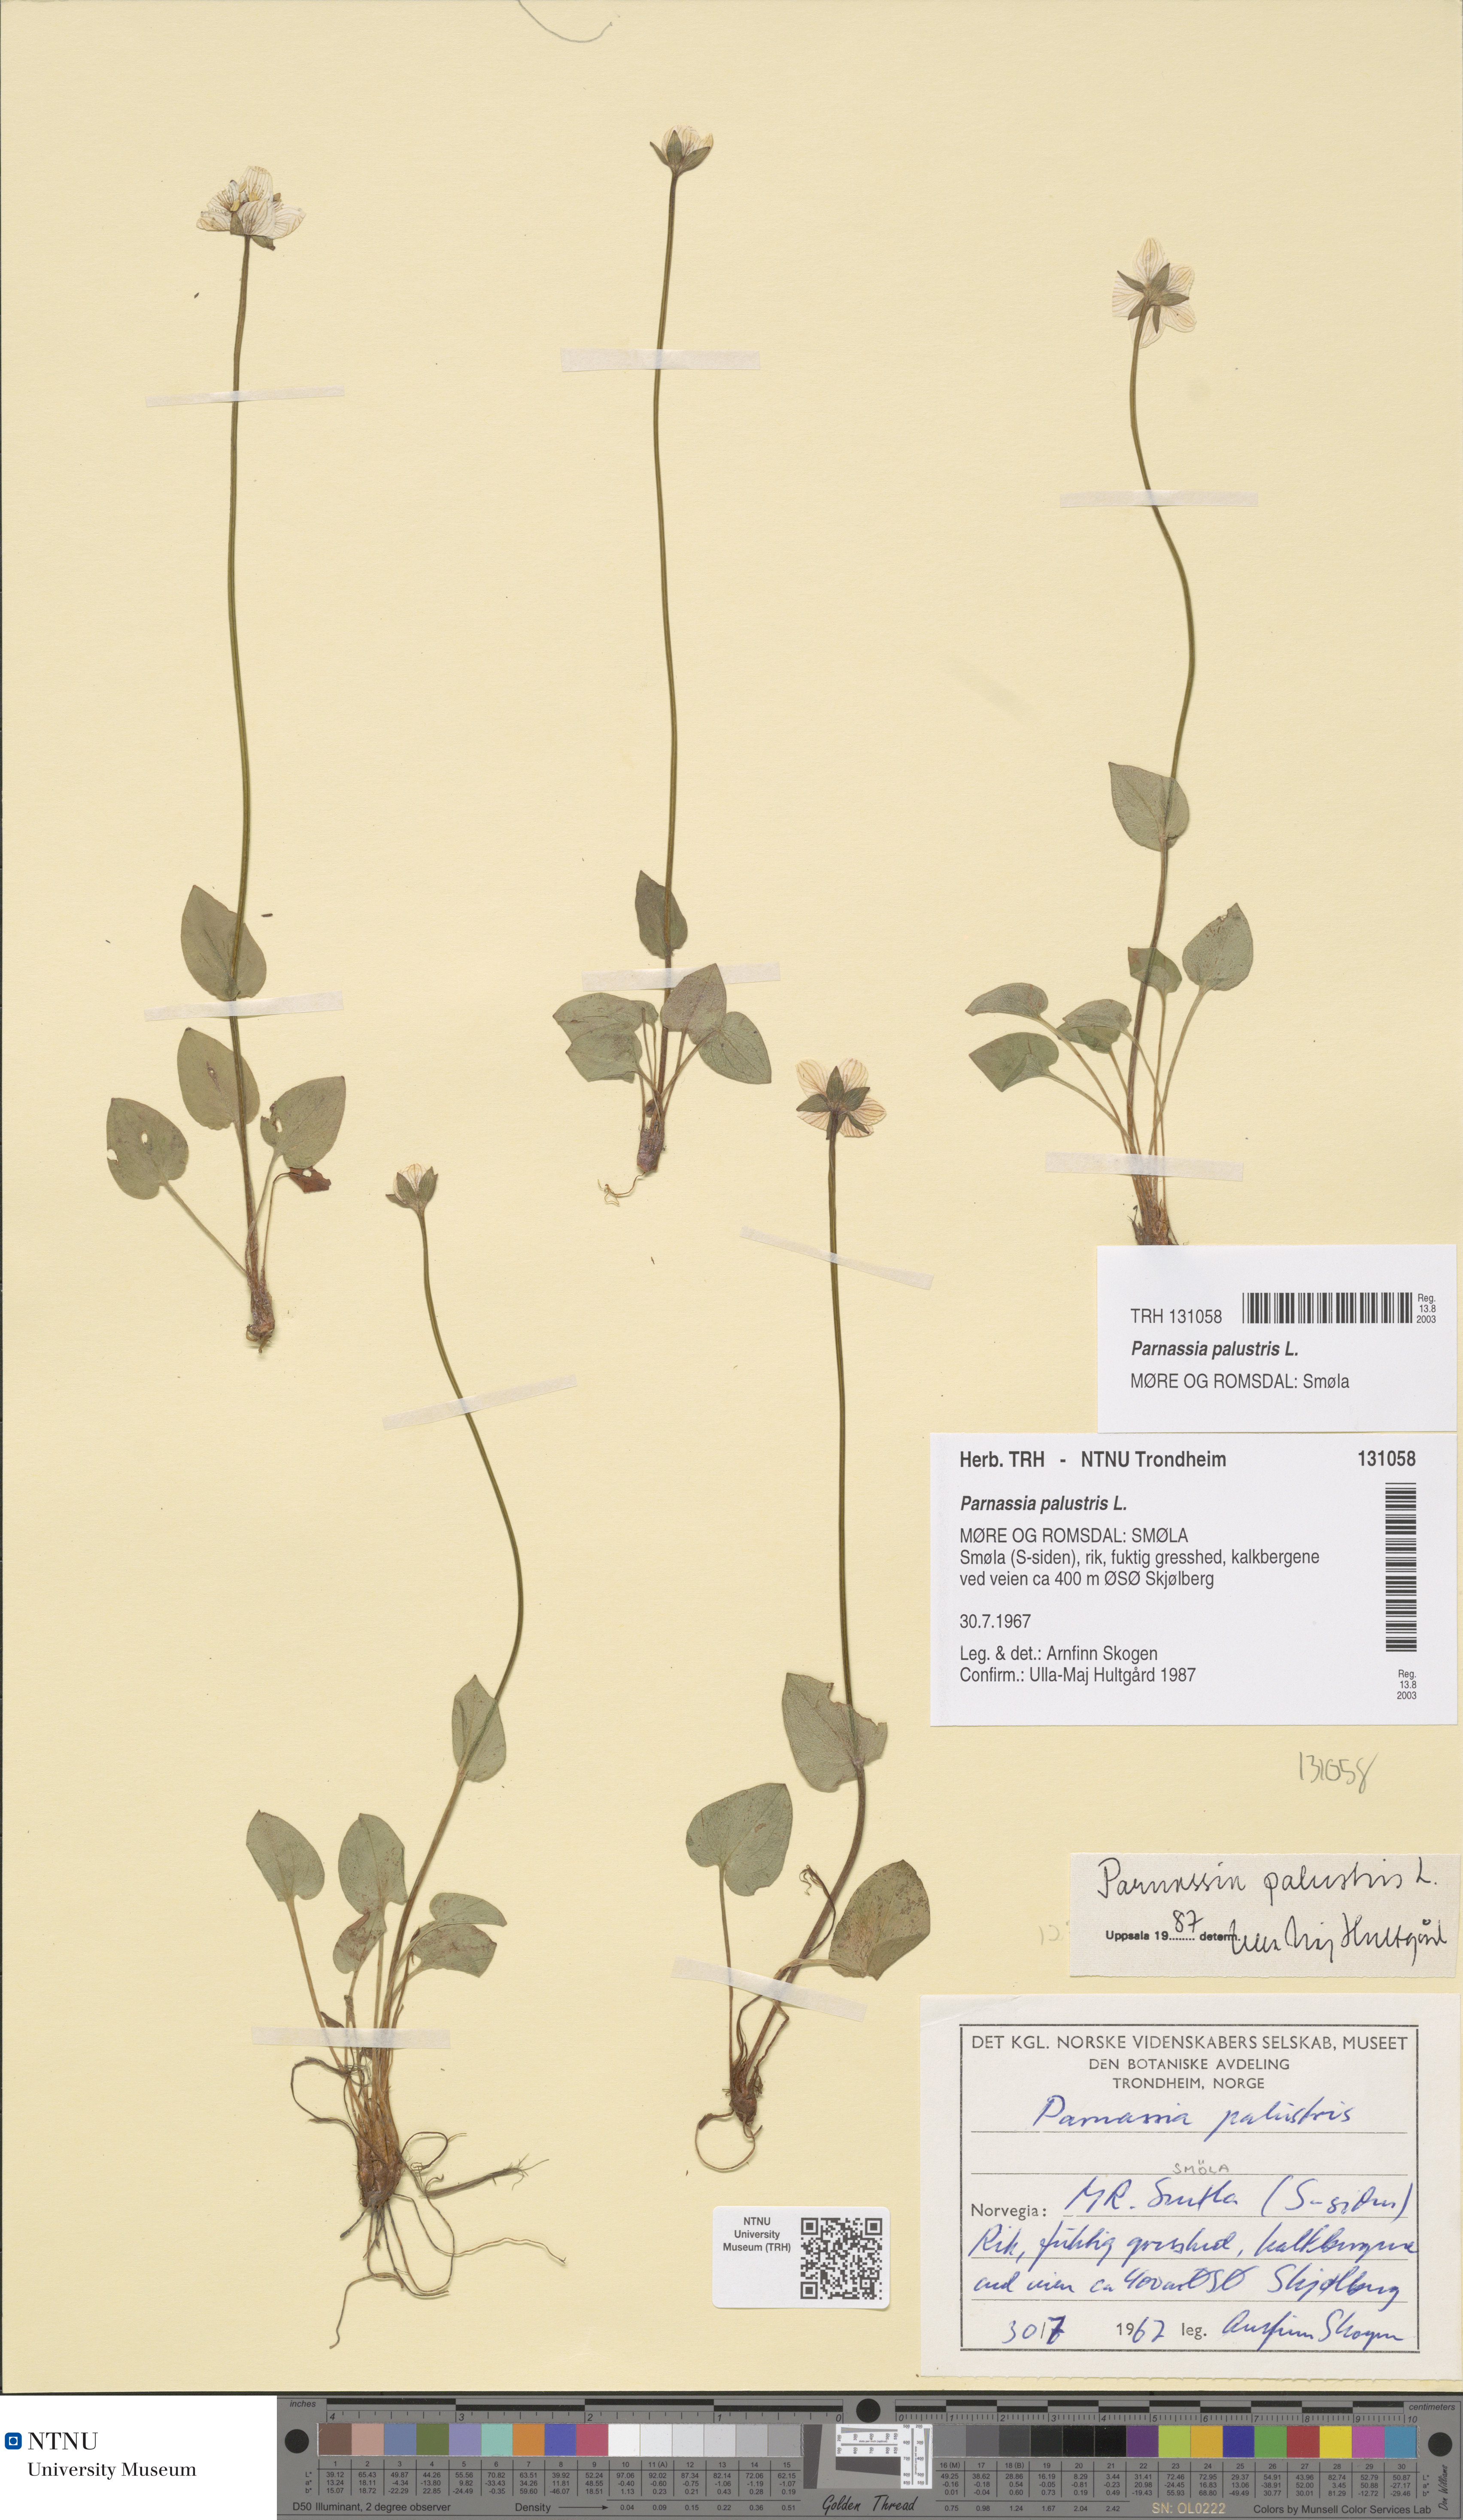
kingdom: Plantae
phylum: Tracheophyta
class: Magnoliopsida
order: Celastrales
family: Parnassiaceae
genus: Parnassia
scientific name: Parnassia palustris
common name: Grass-of-parnassus
